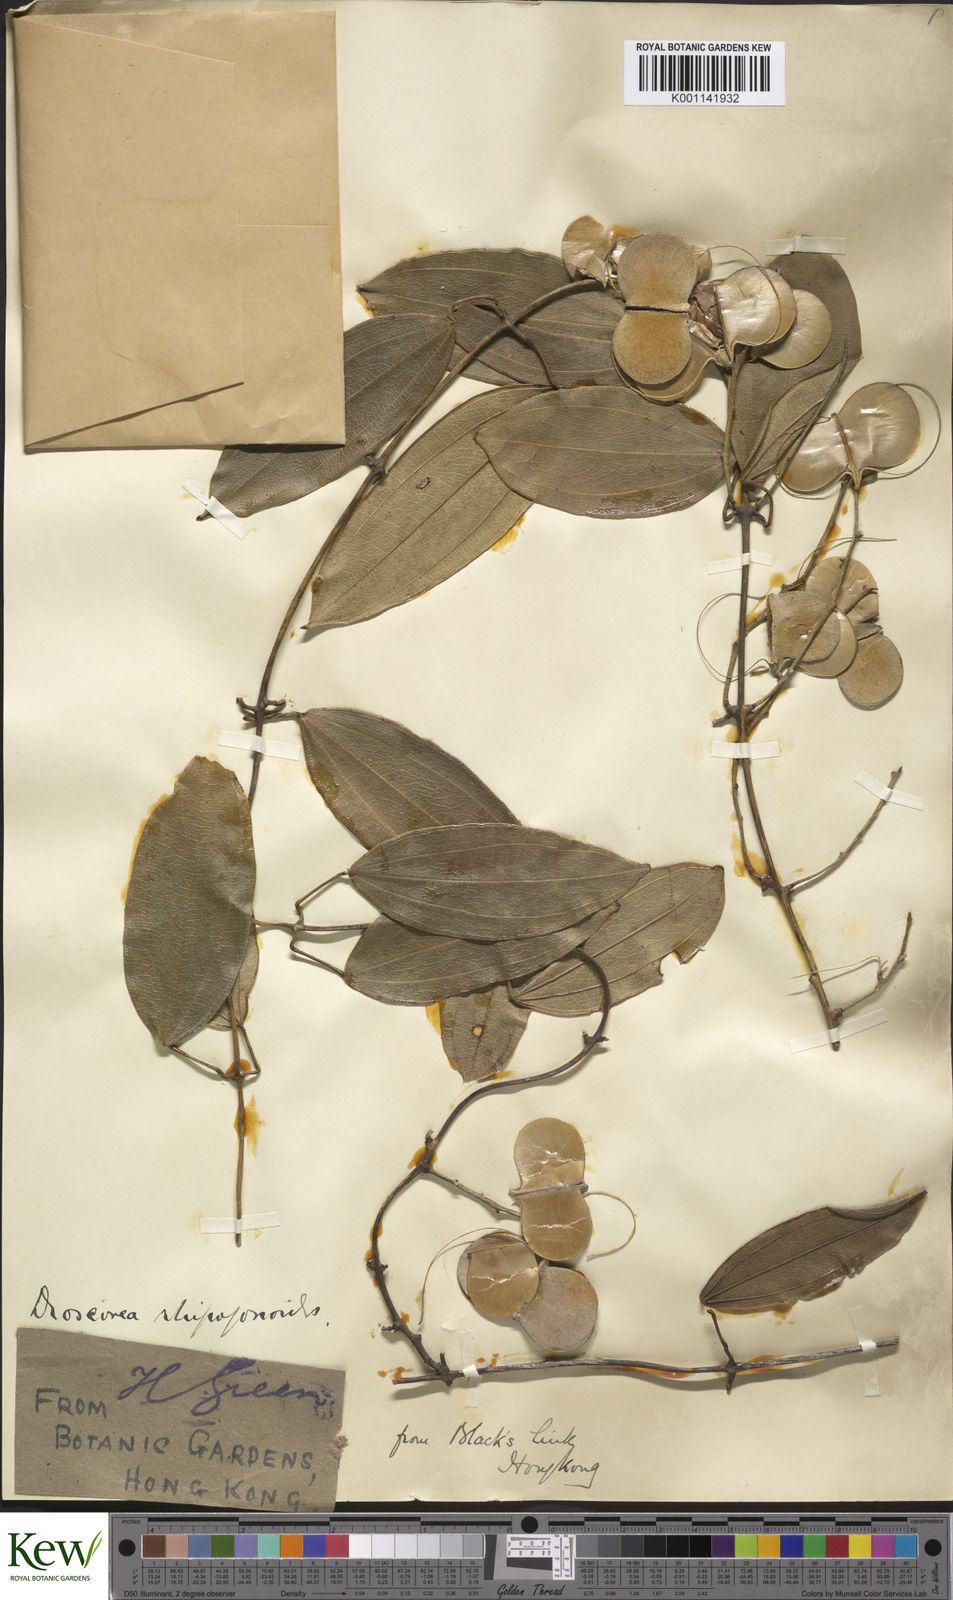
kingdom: Plantae
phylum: Tracheophyta
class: Liliopsida
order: Dioscoreales
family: Dioscoreaceae
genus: Dioscorea
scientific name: Dioscorea cirrhosa
